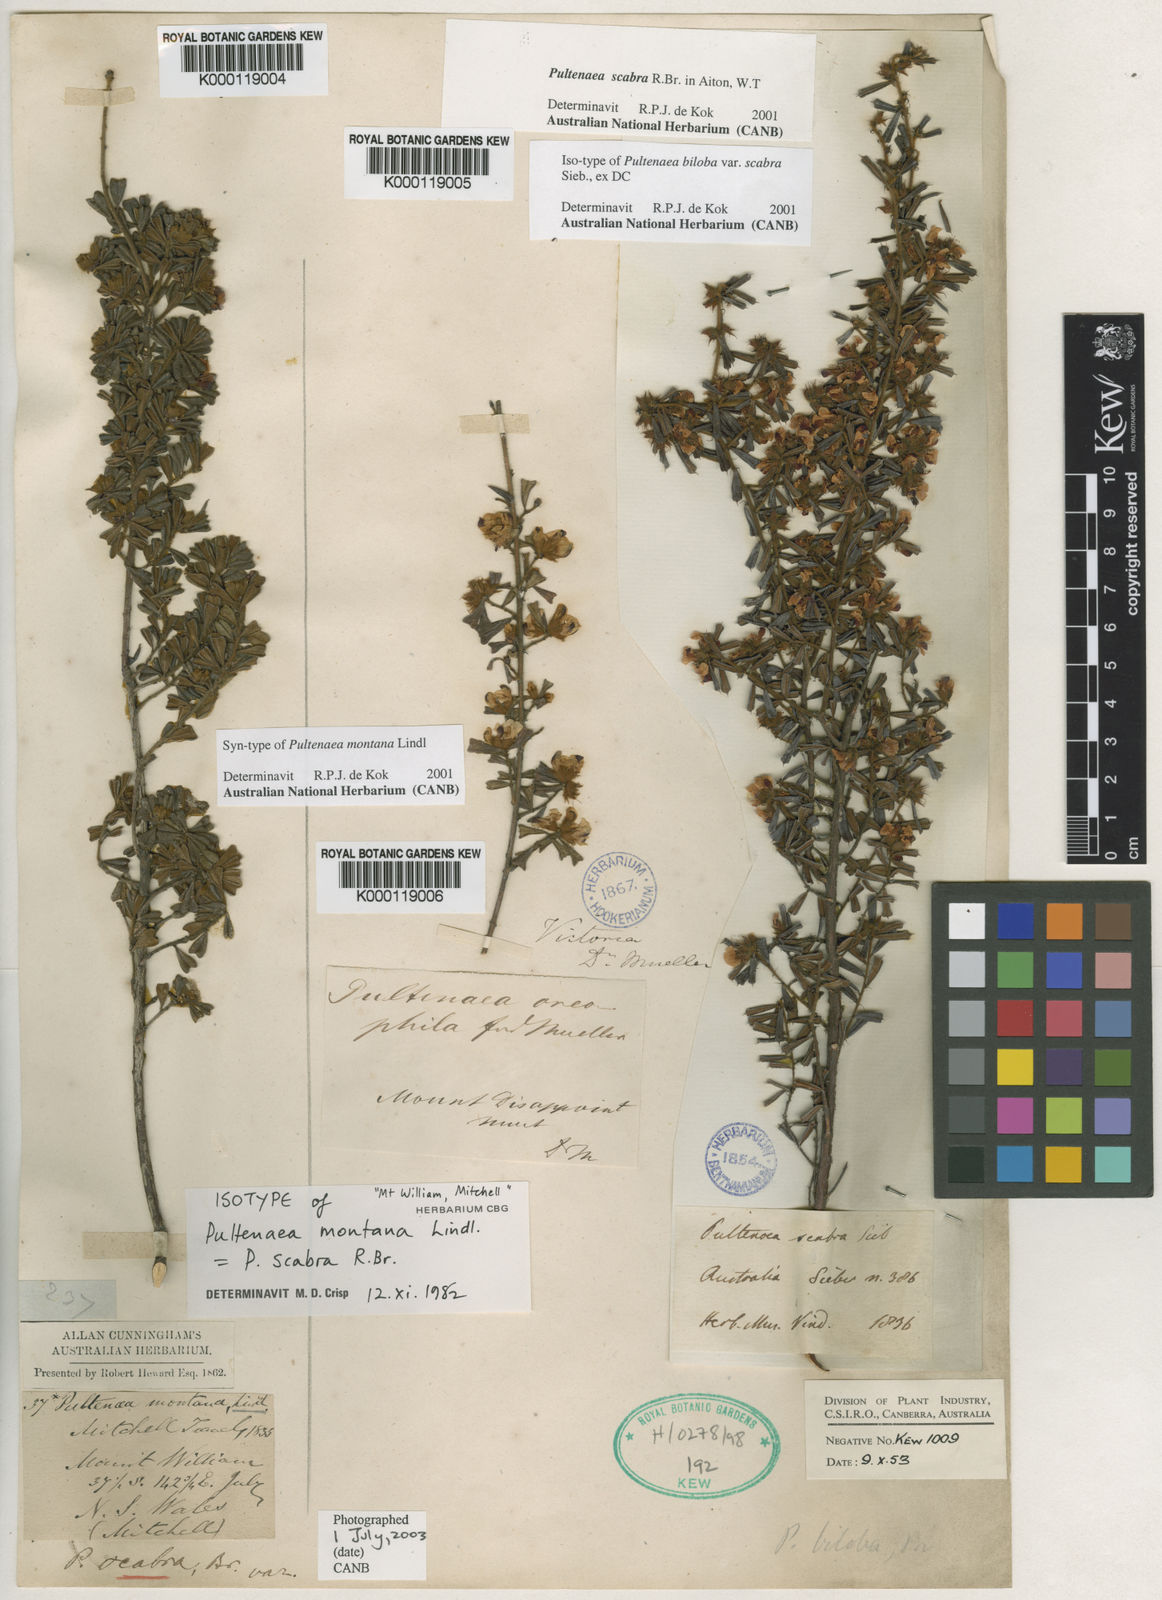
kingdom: Plantae
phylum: Tracheophyta
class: Magnoliopsida
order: Fabales
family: Fabaceae
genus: Pultenaea
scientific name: Pultenaea scabra
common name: Rough bush-pea
